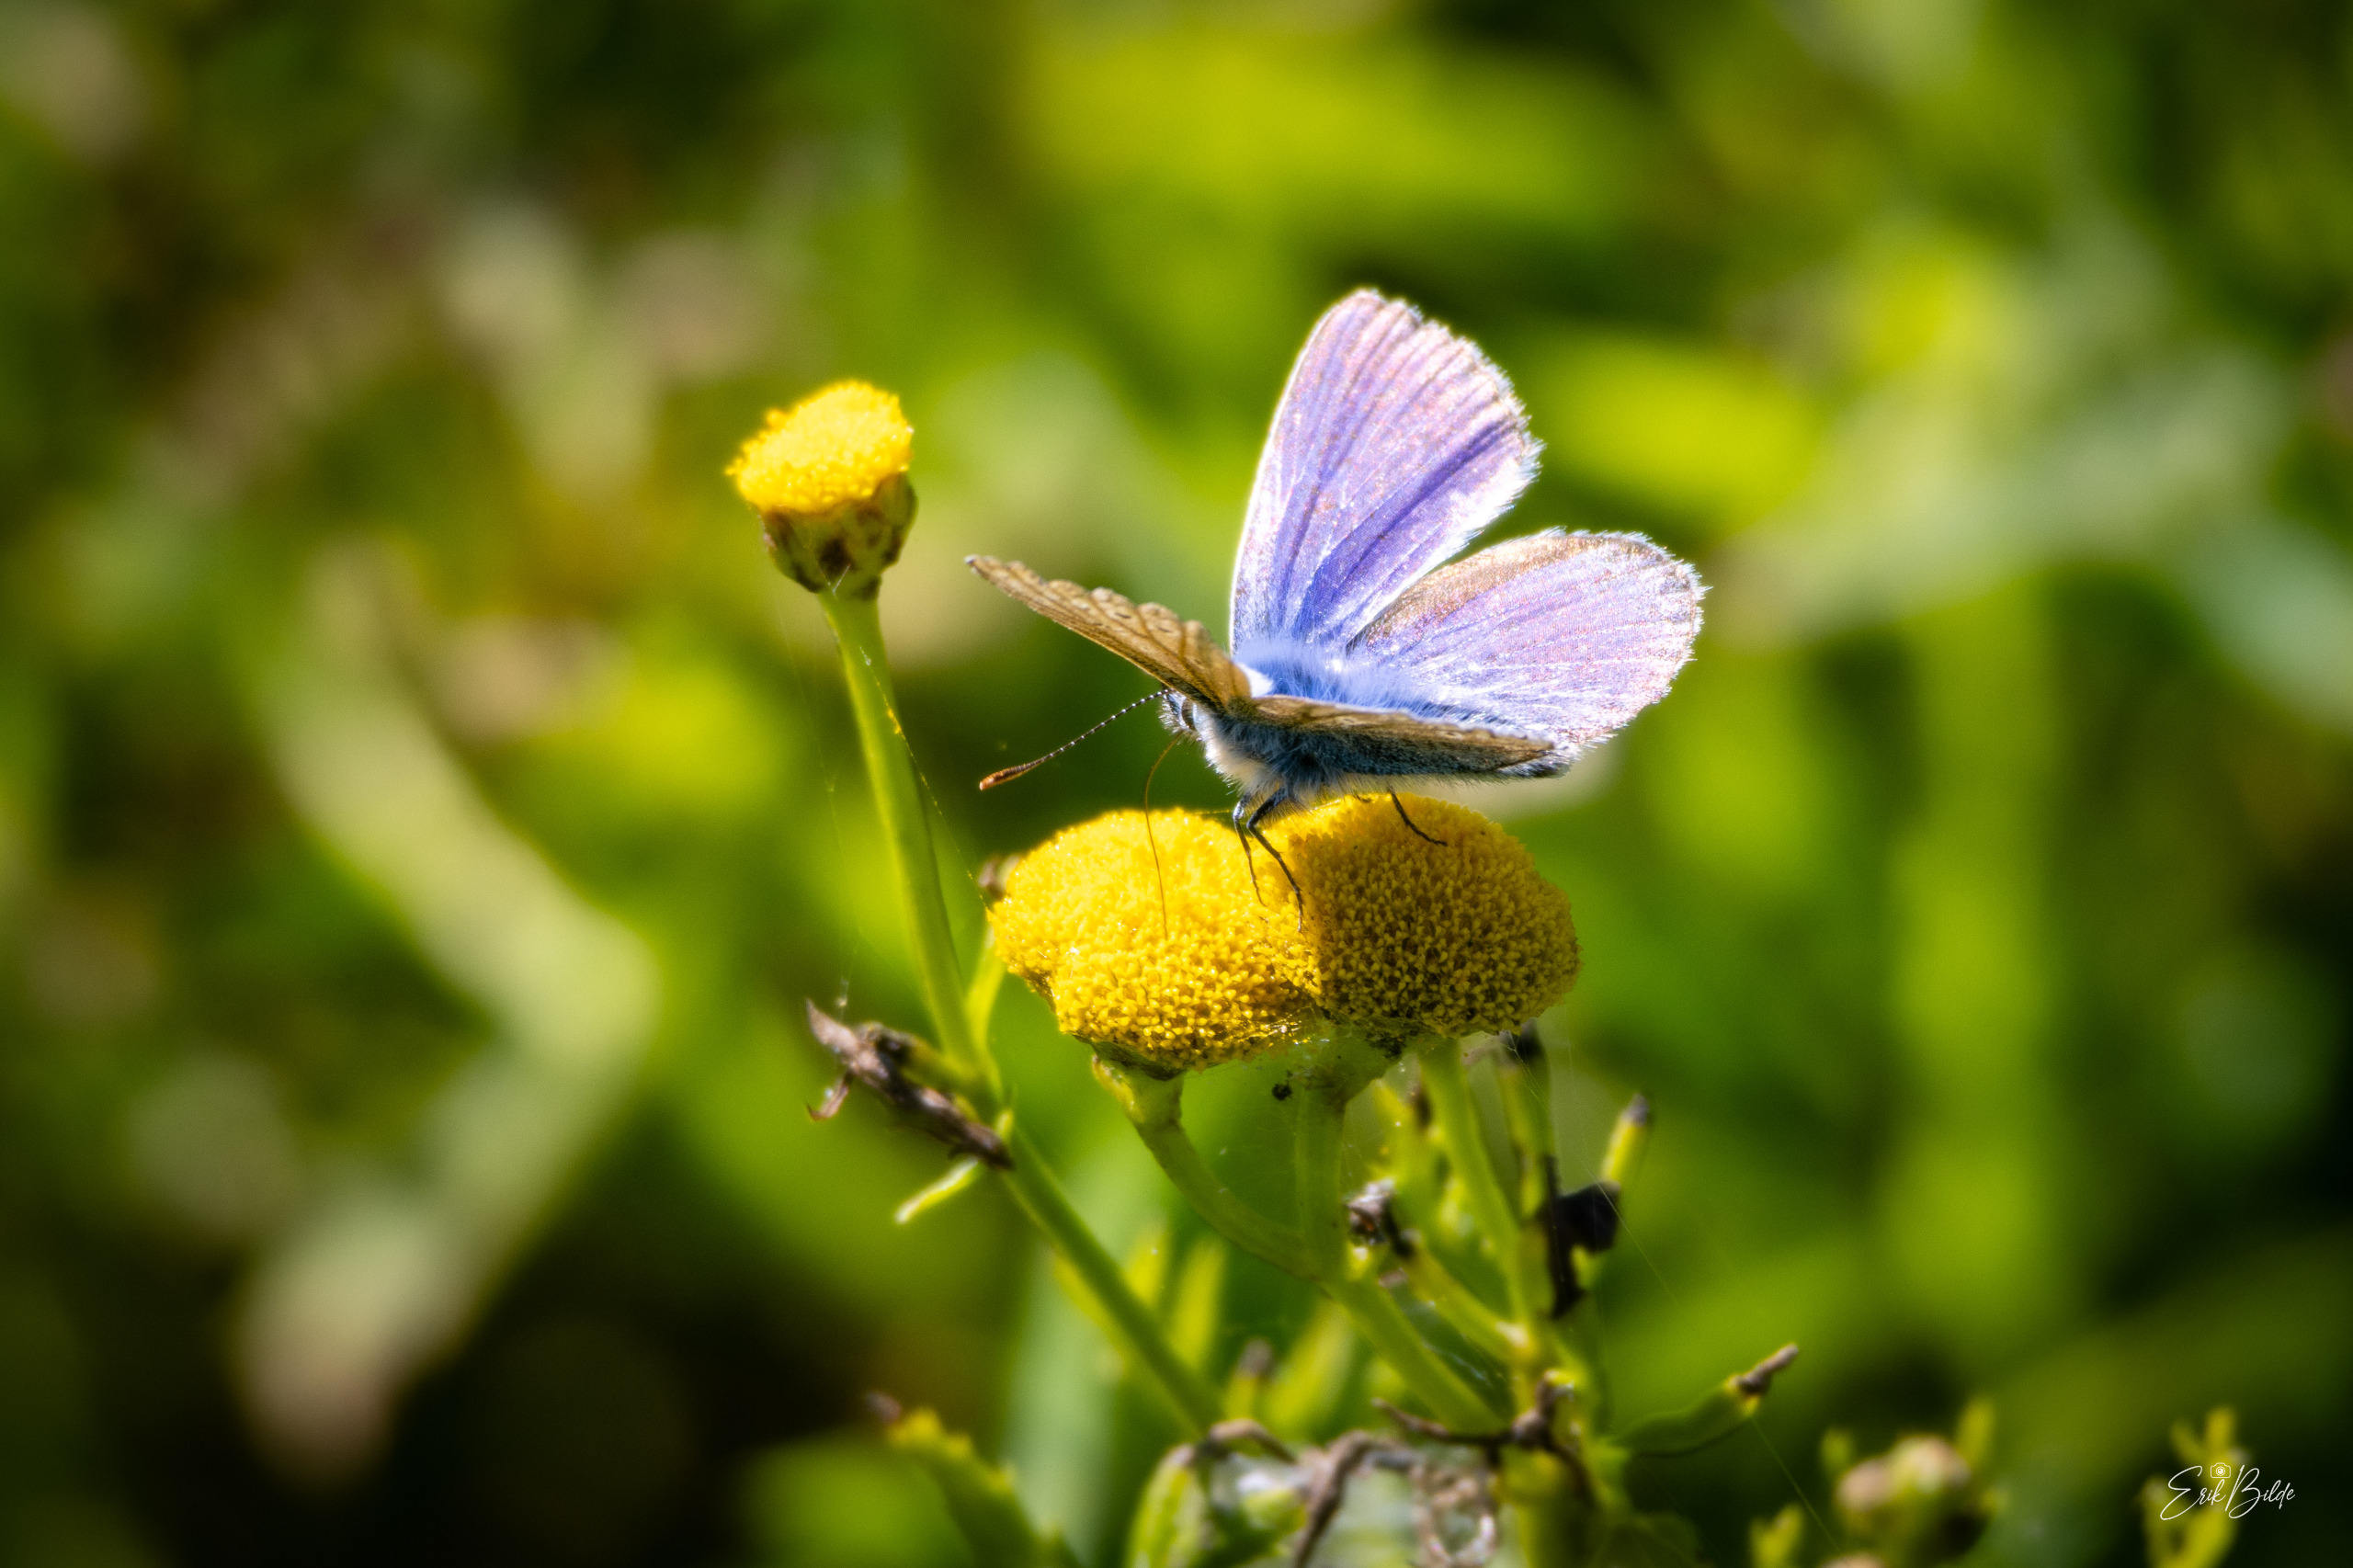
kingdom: Animalia
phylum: Arthropoda
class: Insecta
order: Lepidoptera
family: Lycaenidae
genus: Polyommatus
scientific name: Polyommatus icarus
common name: Almindelig blåfugl
